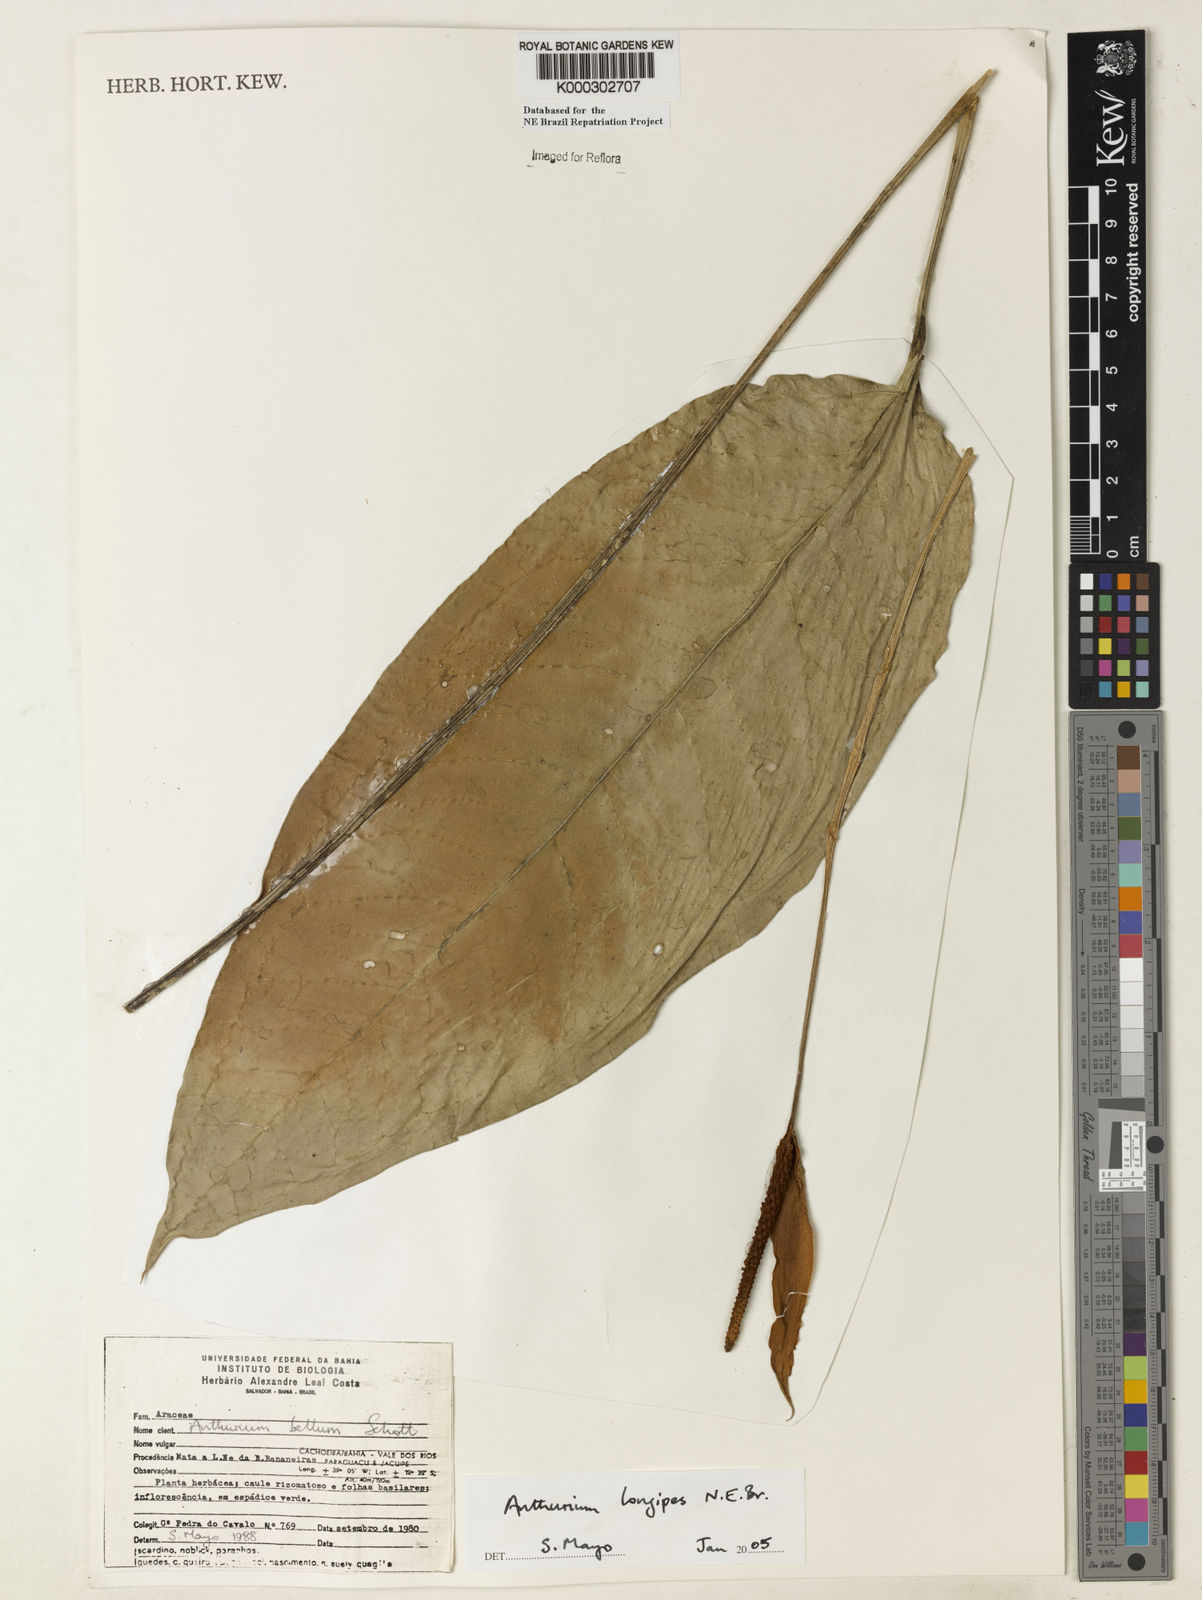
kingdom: Plantae
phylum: Tracheophyta
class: Liliopsida
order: Alismatales
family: Araceae
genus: Anthurium
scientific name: Anthurium longipes
